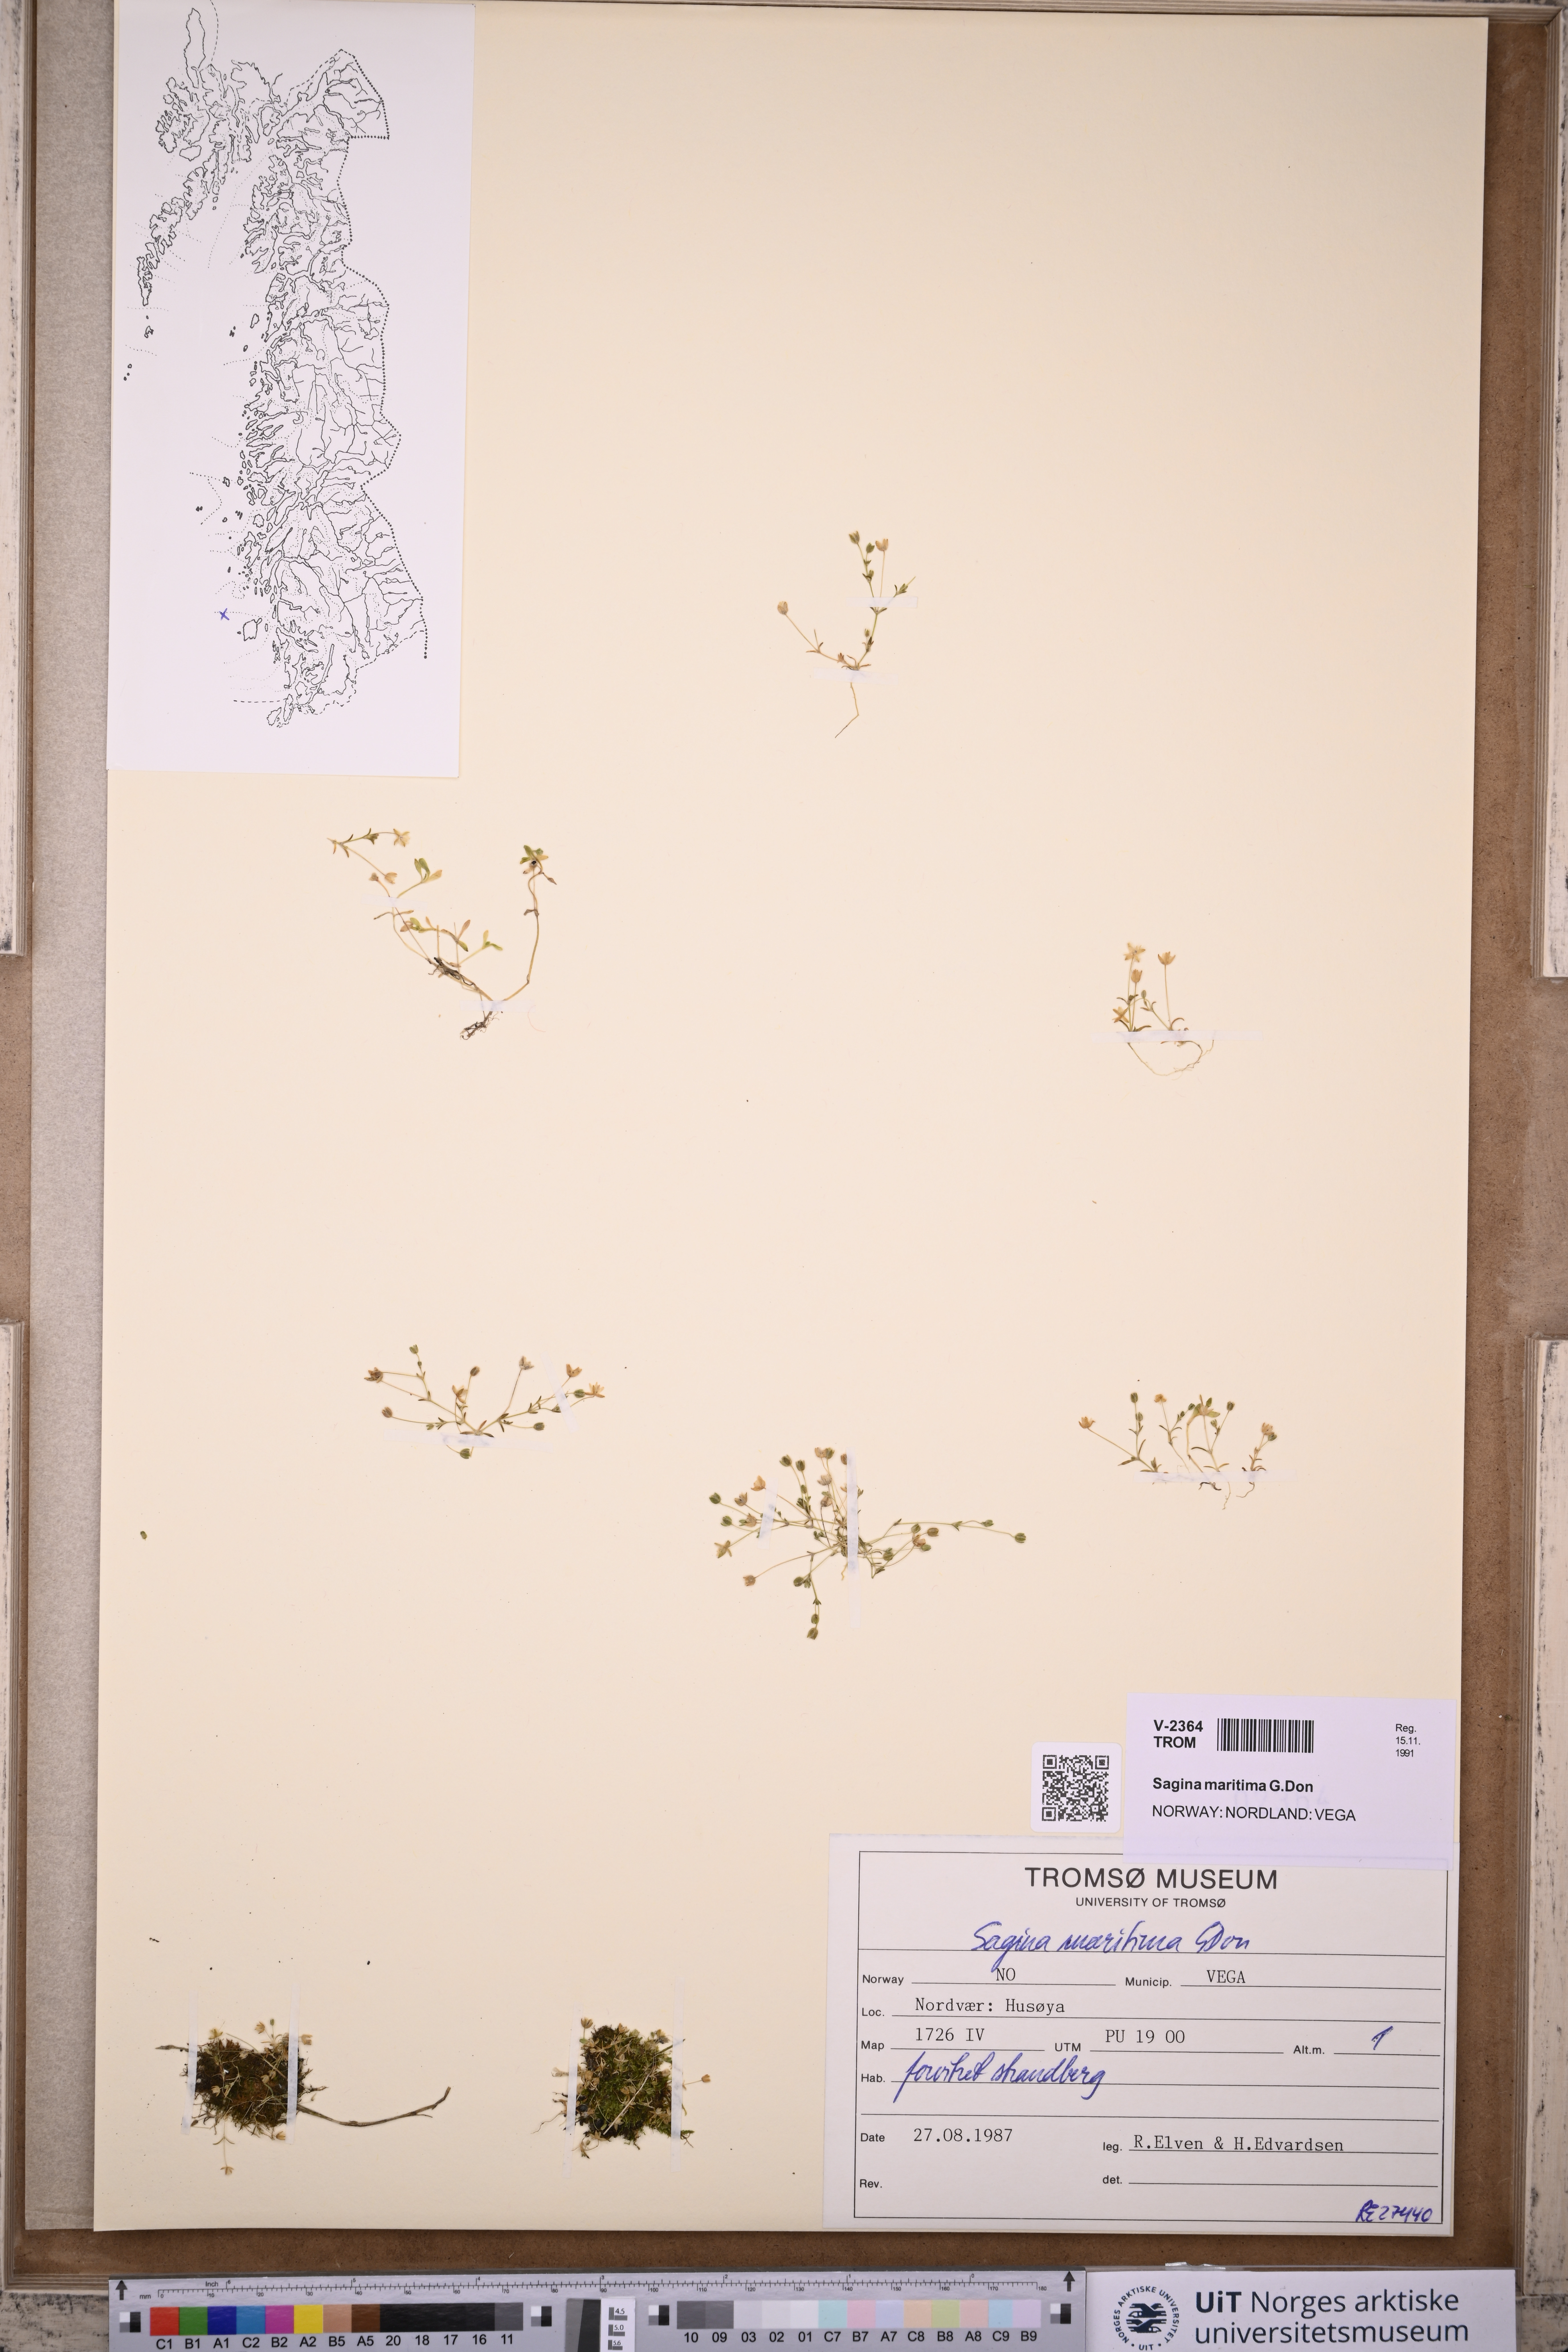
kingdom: Plantae
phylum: Tracheophyta
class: Magnoliopsida
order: Caryophyllales
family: Caryophyllaceae
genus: Sagina
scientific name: Sagina maritima
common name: Sea pearlwort
